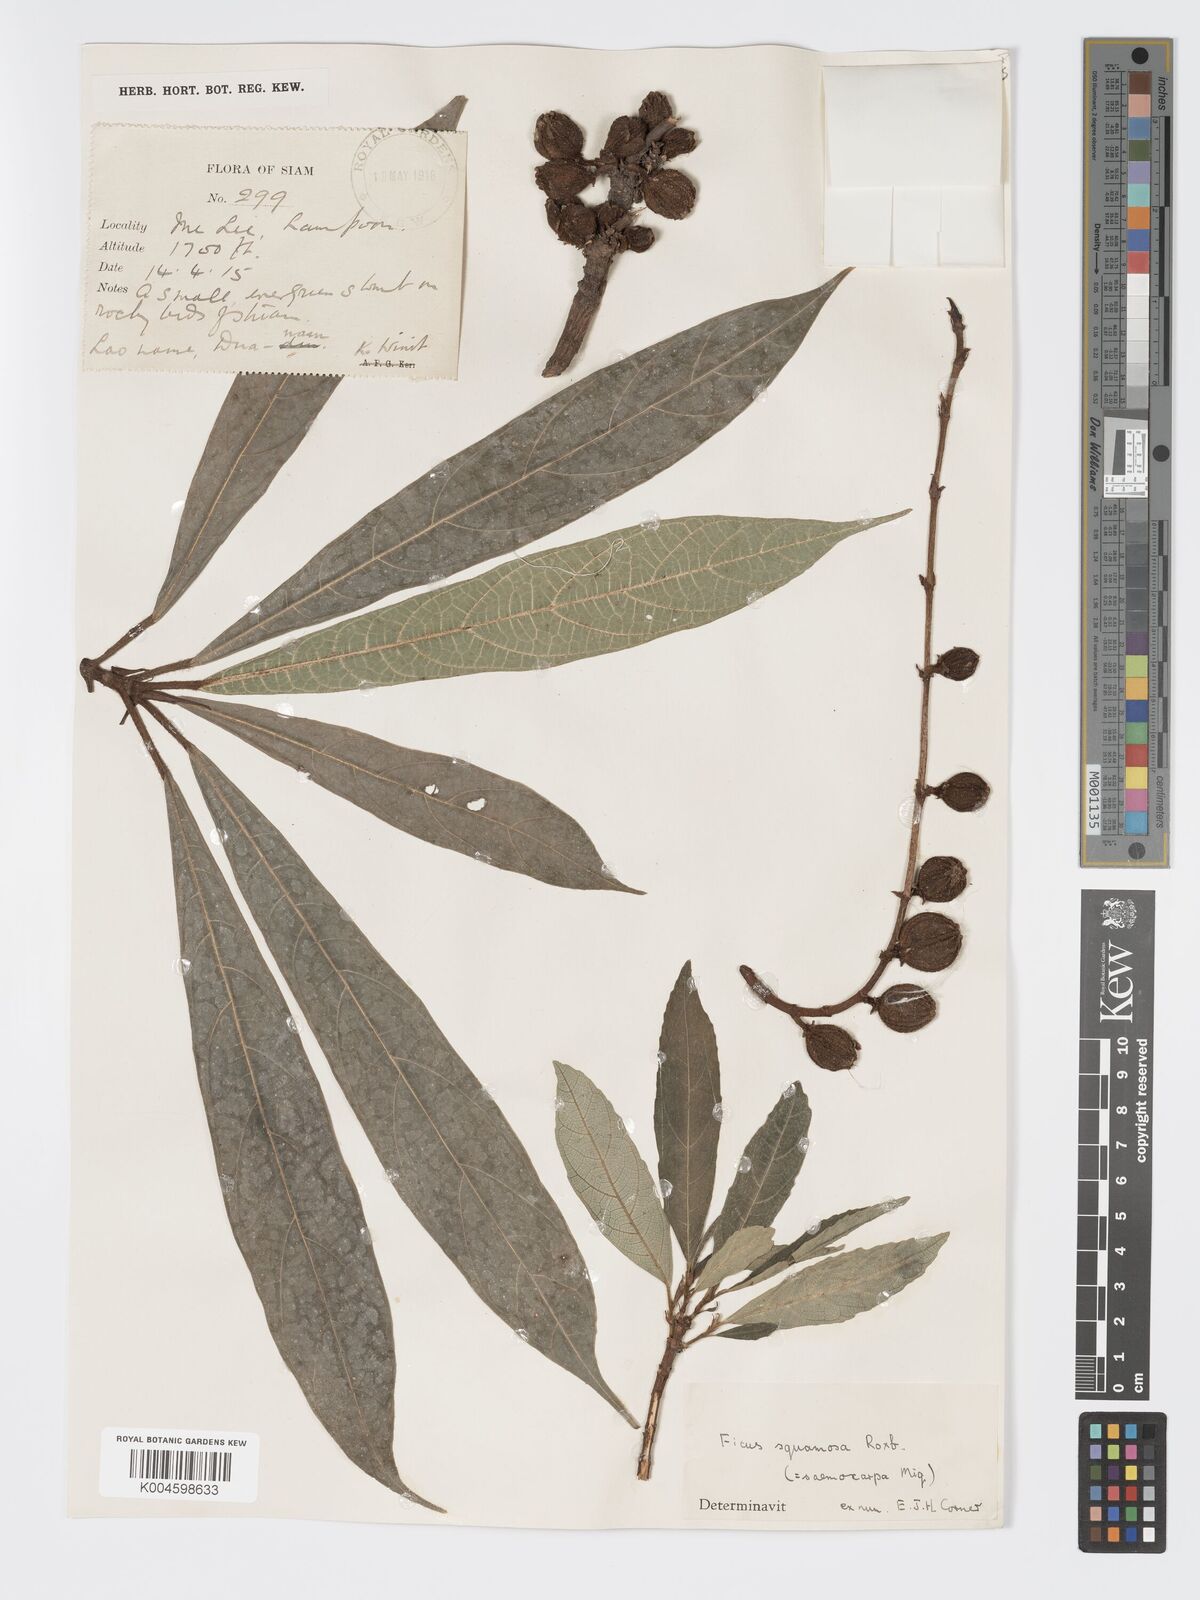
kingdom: Plantae
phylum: Tracheophyta
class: Magnoliopsida
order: Rosales
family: Moraceae
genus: Ficus
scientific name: Ficus squamosa
